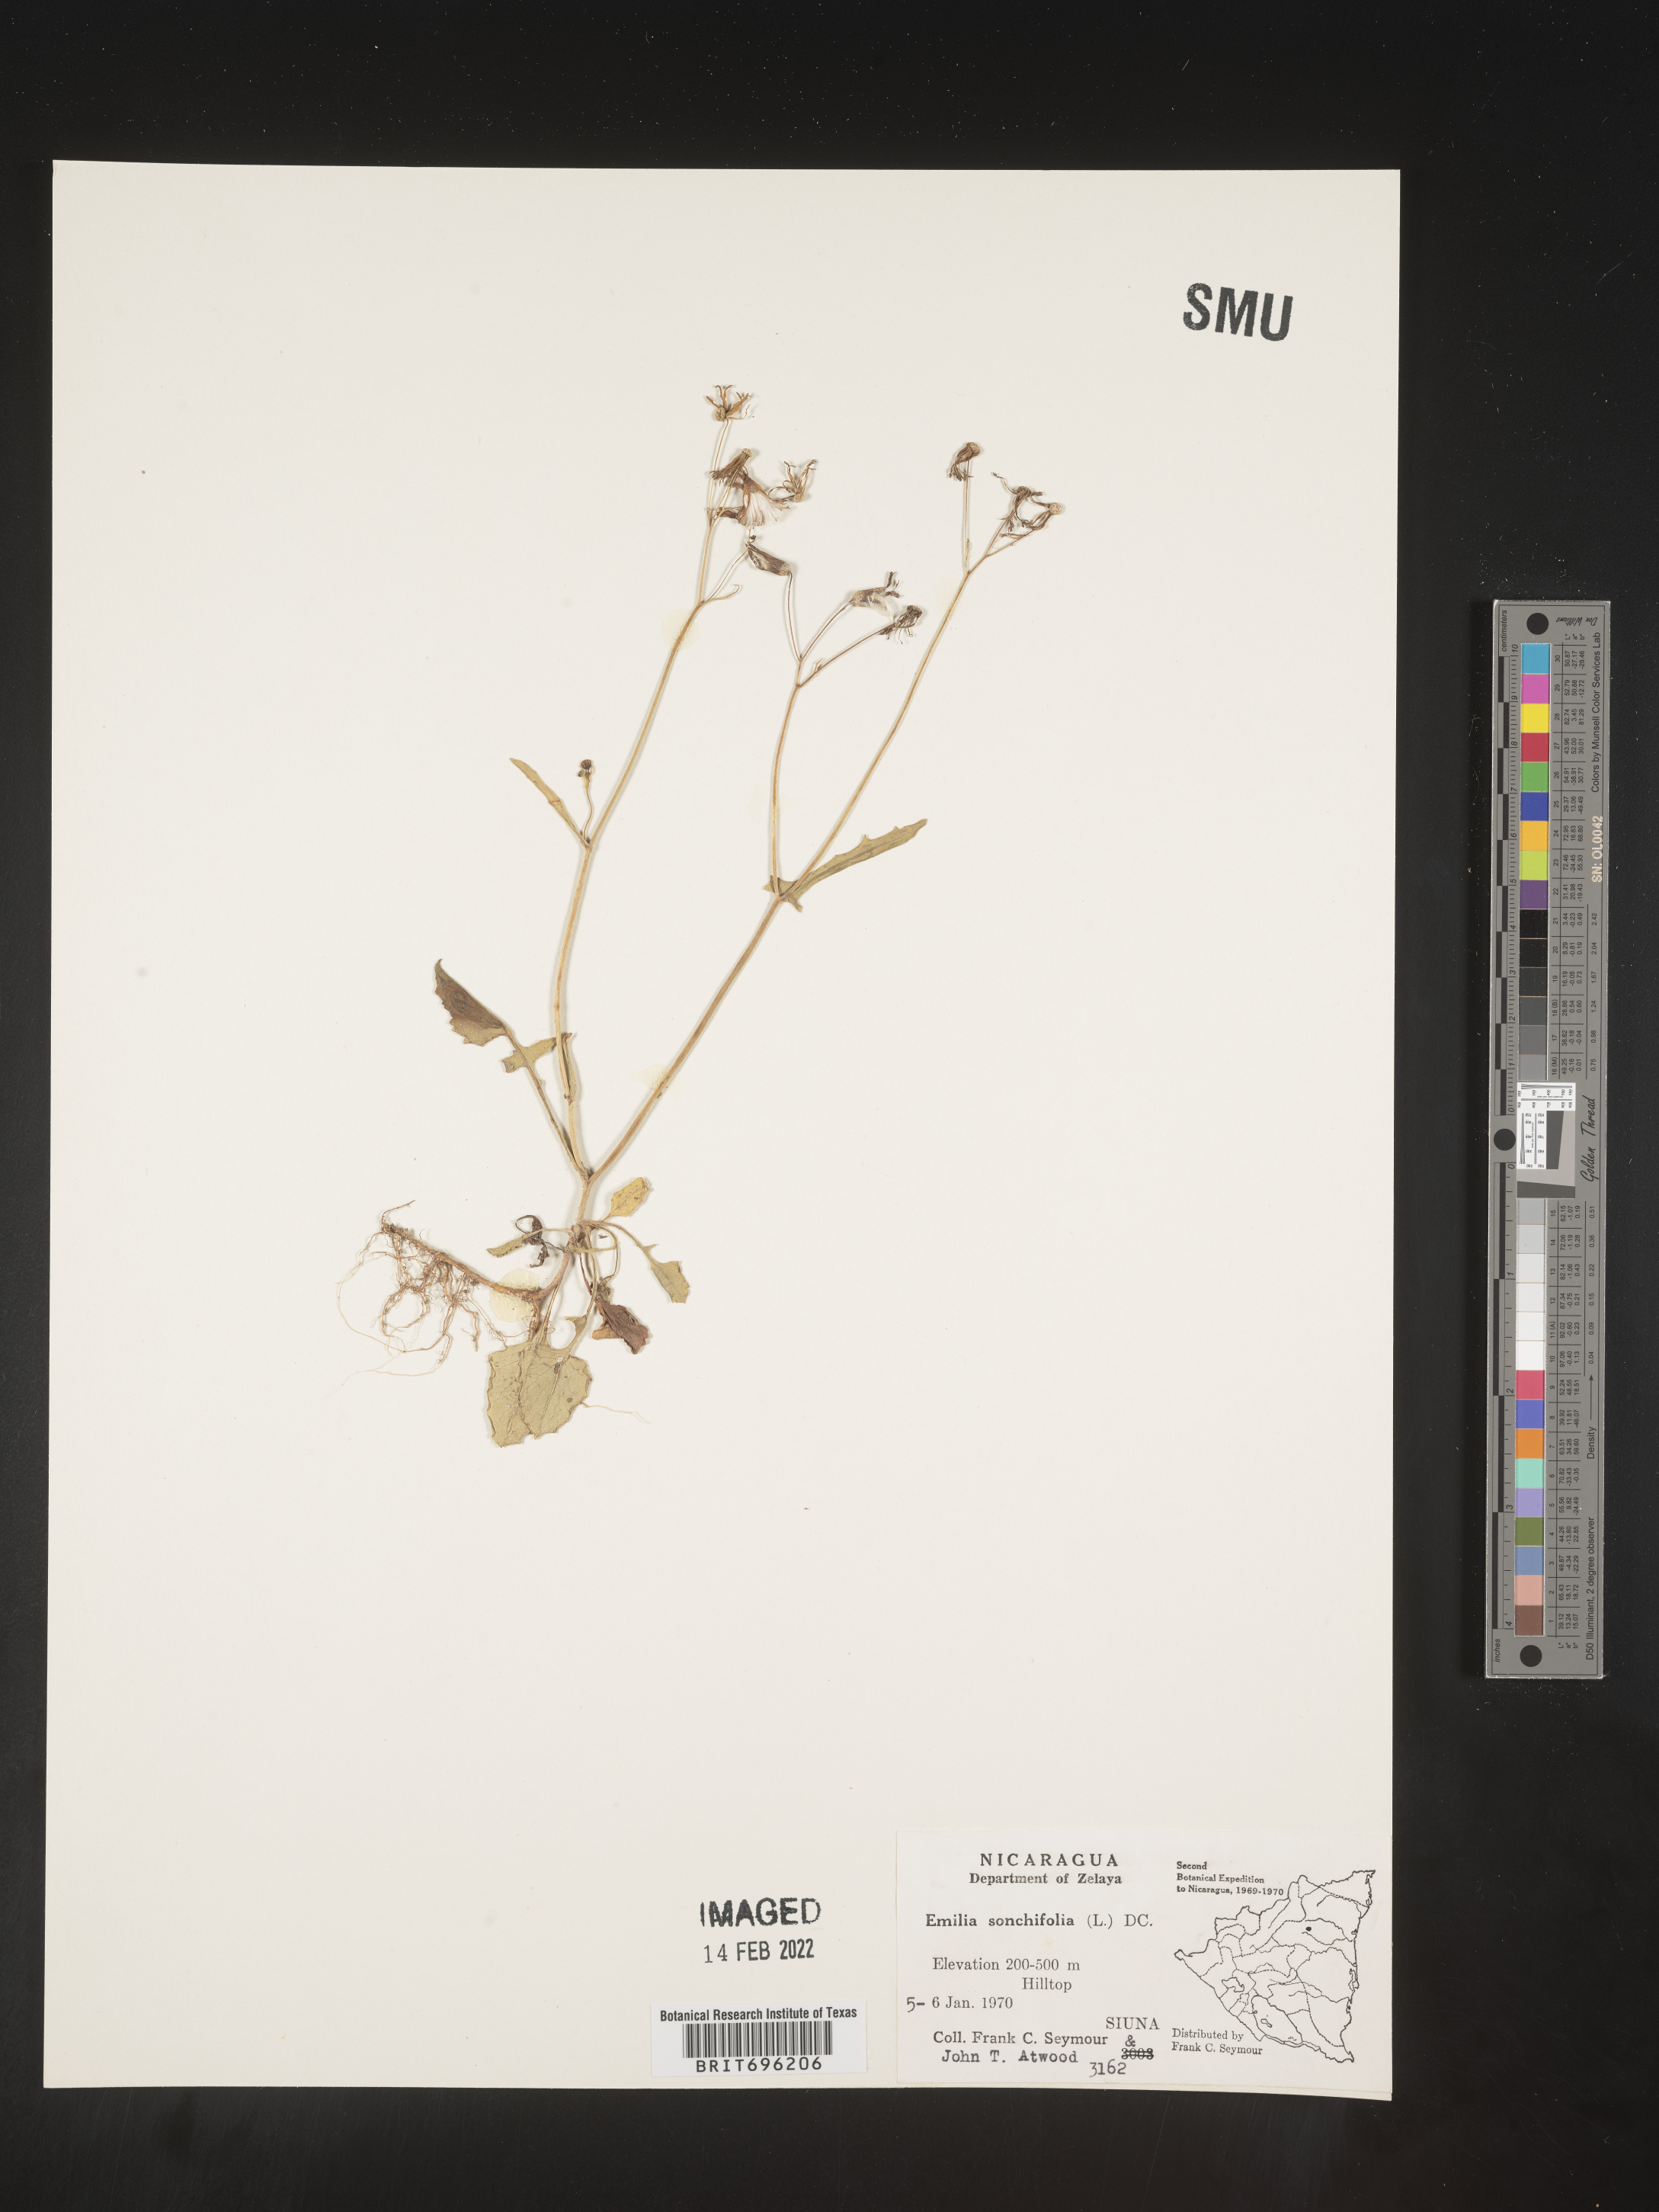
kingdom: Plantae
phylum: Tracheophyta
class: Magnoliopsida
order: Asterales
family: Asteraceae
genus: Emilia
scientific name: Emilia
